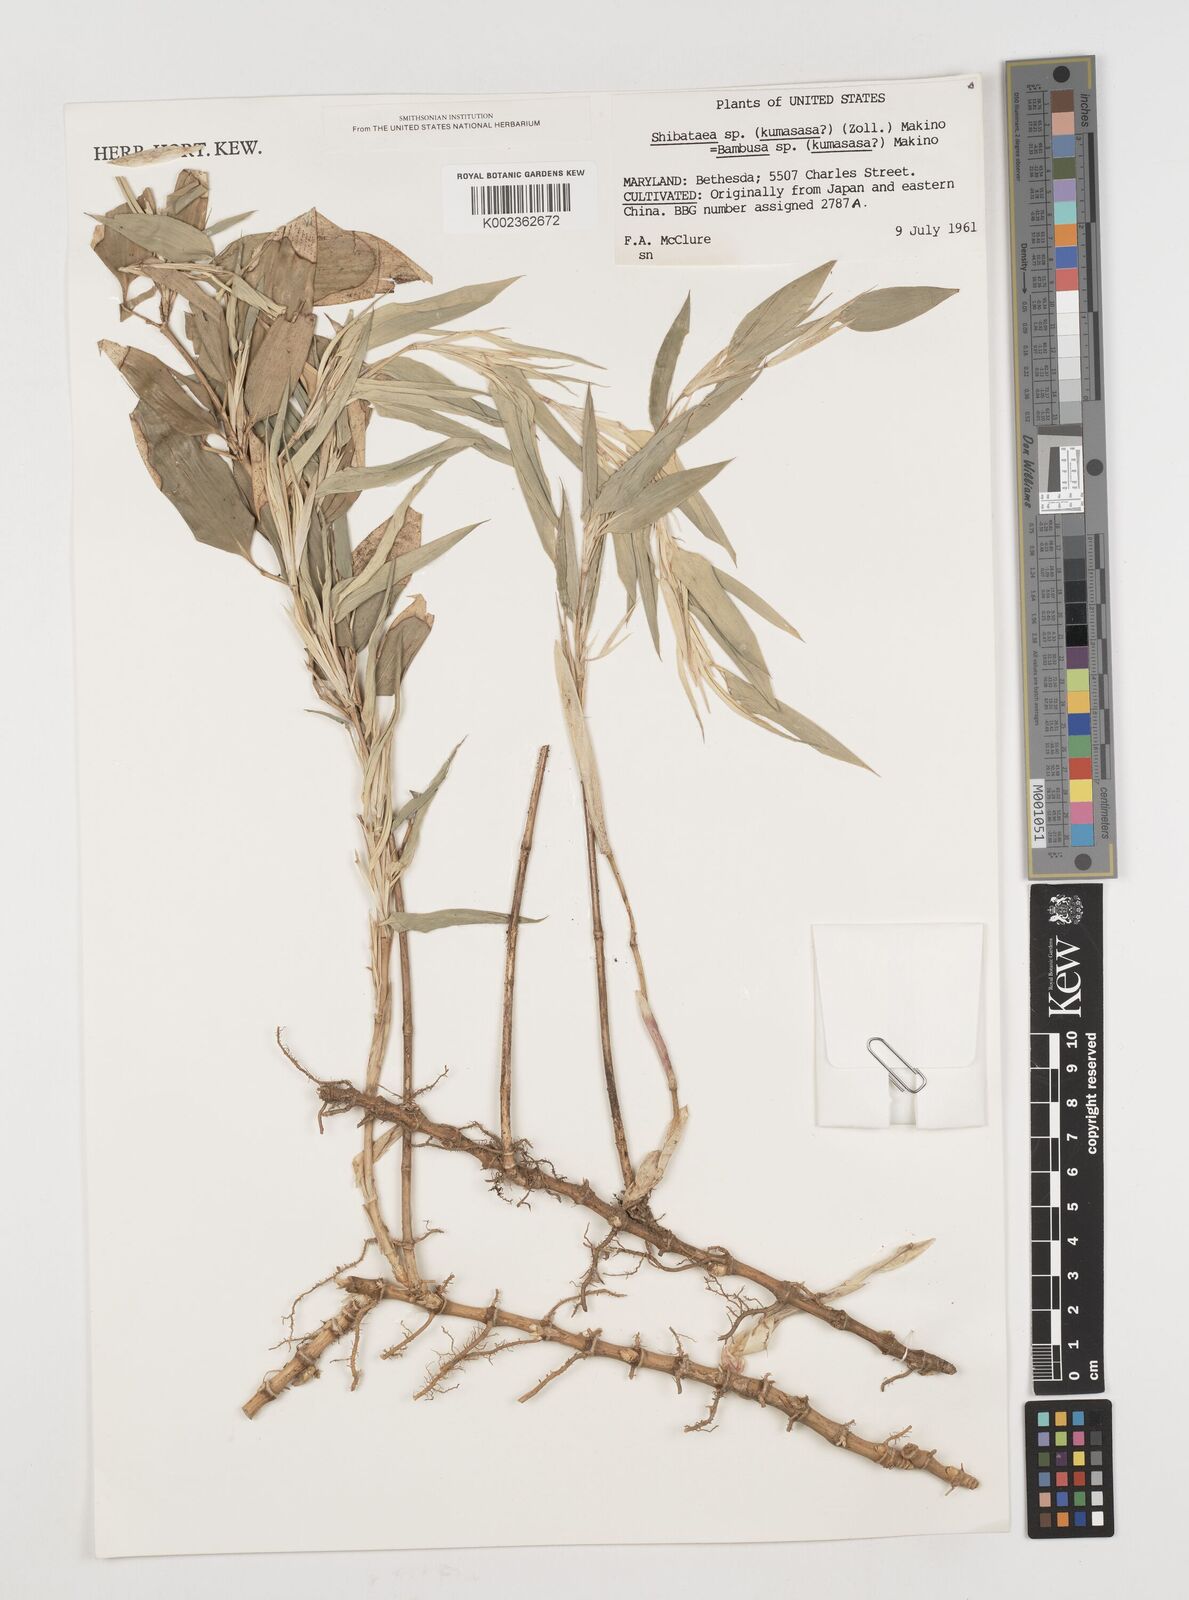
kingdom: Plantae
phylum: Tracheophyta
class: Liliopsida
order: Poales
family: Poaceae
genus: Shibataea
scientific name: Shibataea
